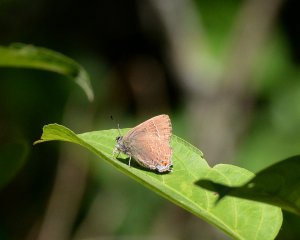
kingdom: Animalia
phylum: Arthropoda
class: Insecta
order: Lepidoptera
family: Lycaenidae
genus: Satyrium
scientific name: Satyrium calanus
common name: Banded Hairstreak
